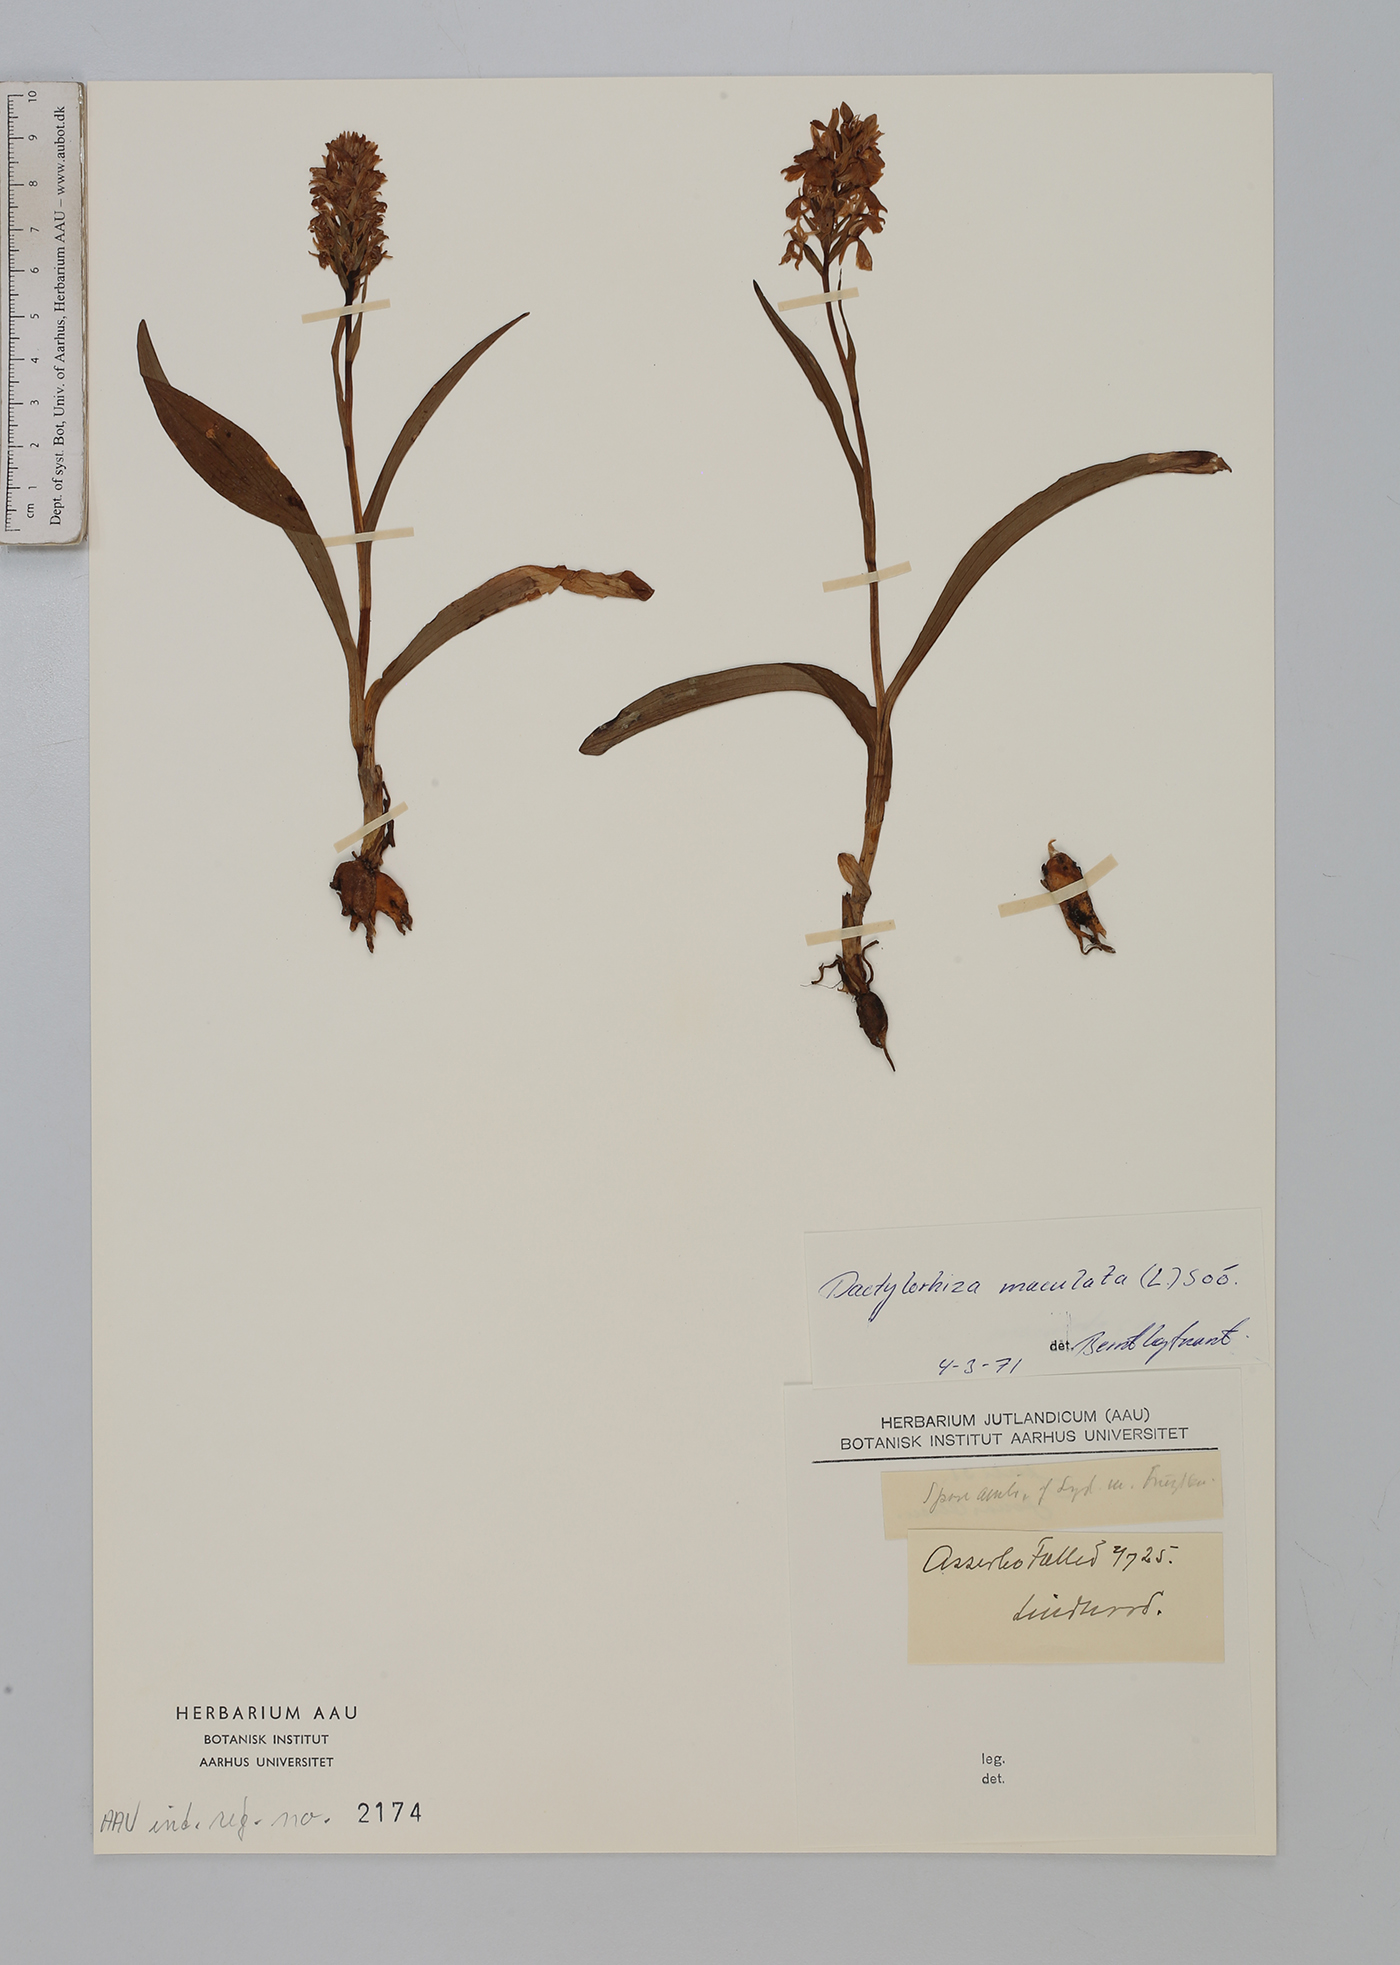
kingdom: Plantae
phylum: Tracheophyta
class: Liliopsida
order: Asparagales
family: Orchidaceae
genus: Dactylorhiza
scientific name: Dactylorhiza maculata
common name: Heath spotted-orchid
